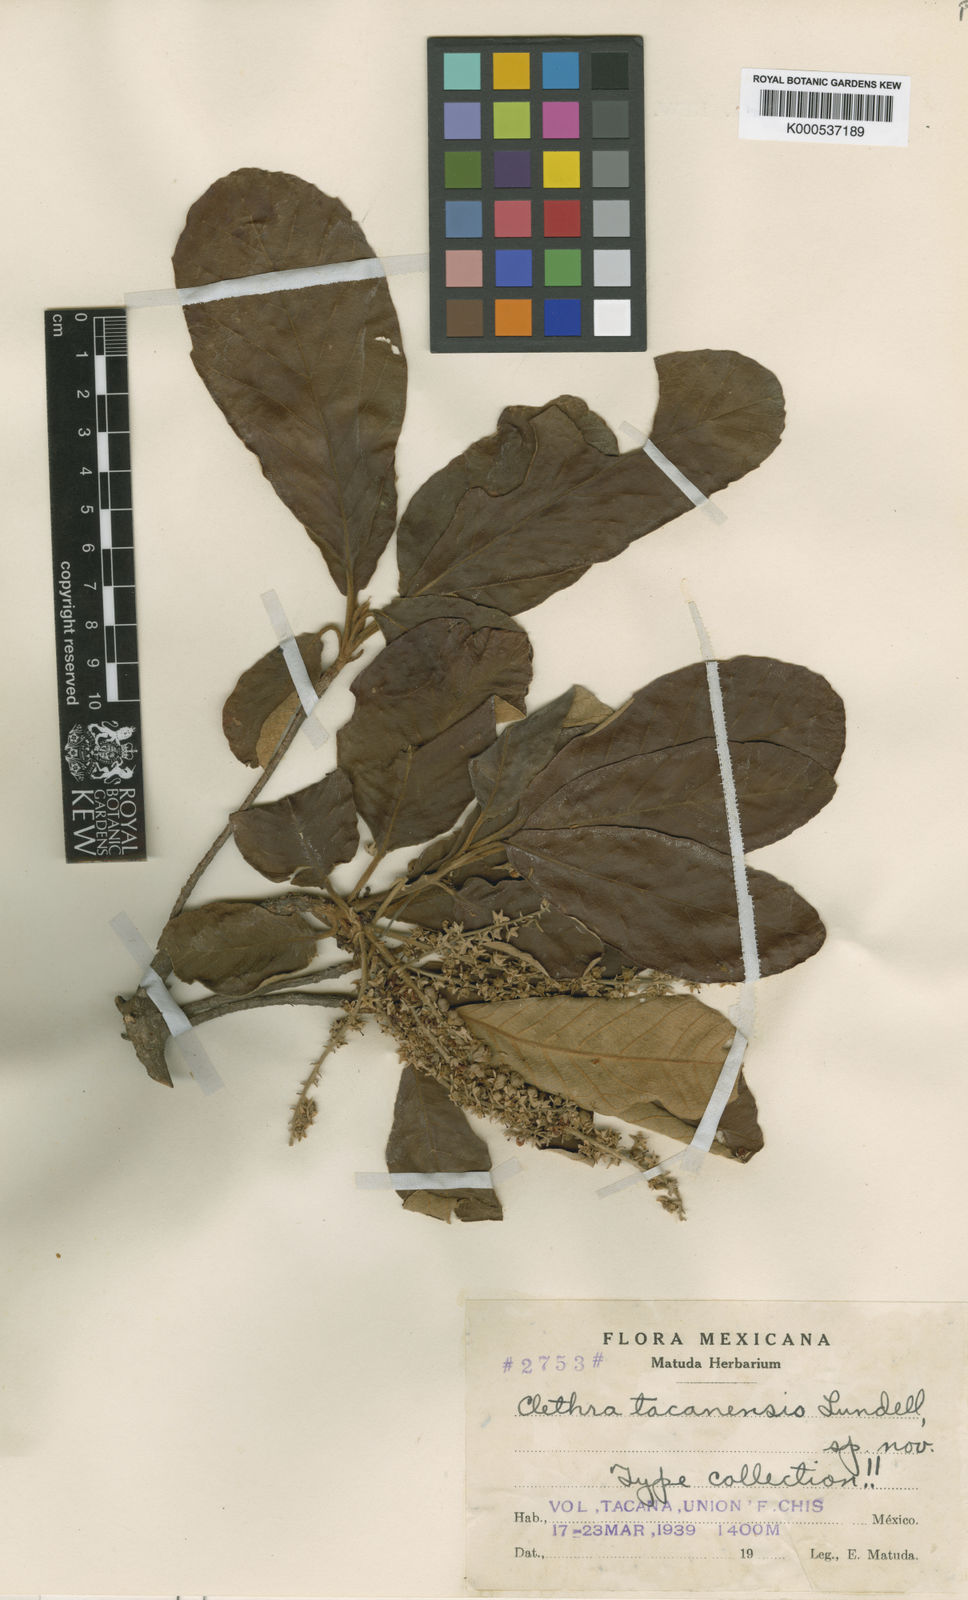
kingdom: Plantae
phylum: Tracheophyta
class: Magnoliopsida
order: Ericales
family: Clethraceae
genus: Clethra
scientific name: Clethra
